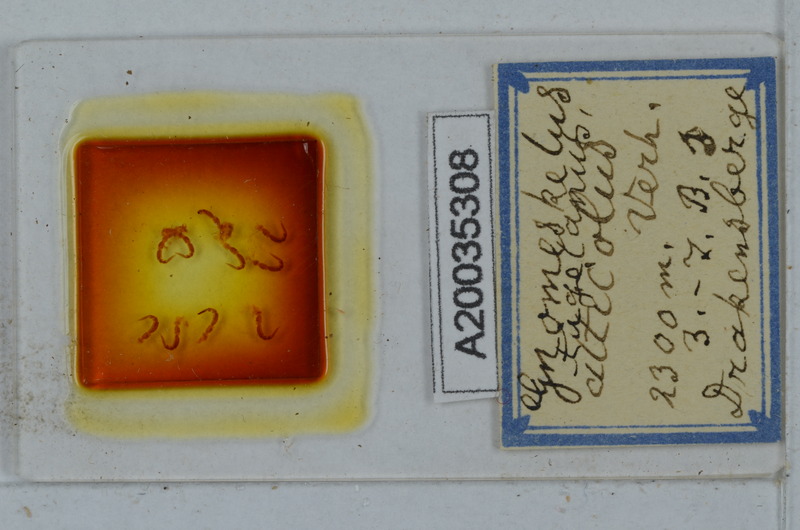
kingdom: Animalia
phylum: Arthropoda
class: Diplopoda
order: Polydesmida
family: Dalodesmidae
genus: Gnomeskelus
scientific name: Gnomeskelus tugelanus
